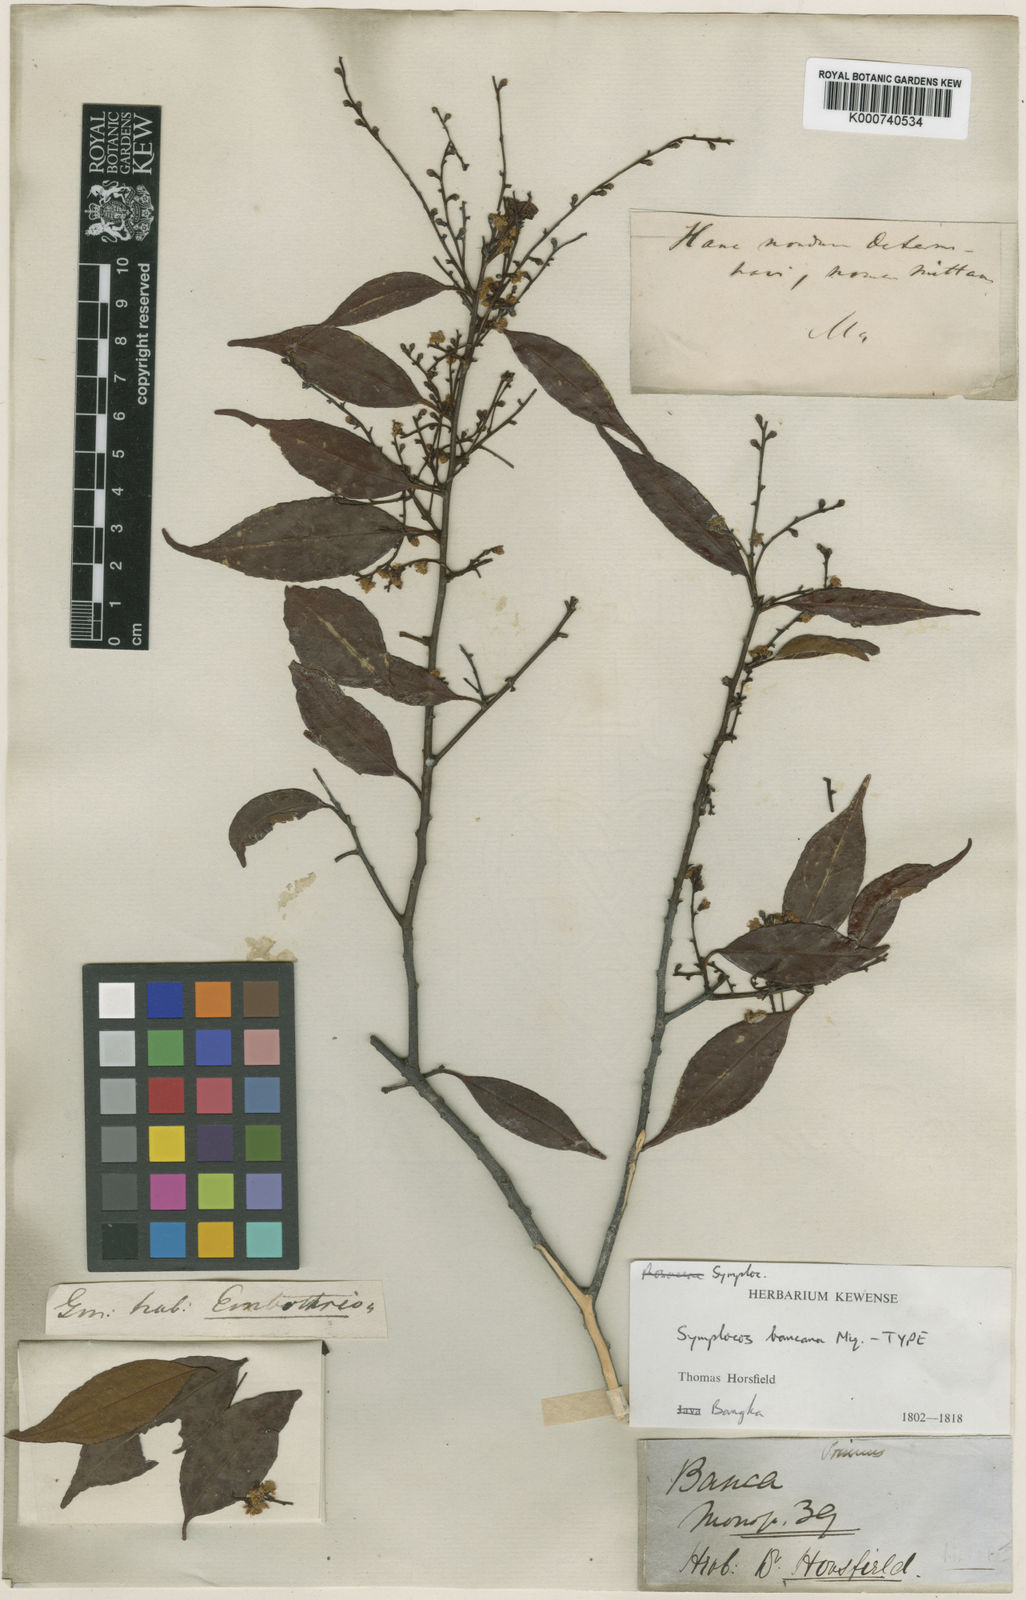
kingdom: Plantae
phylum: Tracheophyta
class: Magnoliopsida
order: Ericales
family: Symplocaceae
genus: Symplocos
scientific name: Symplocos
